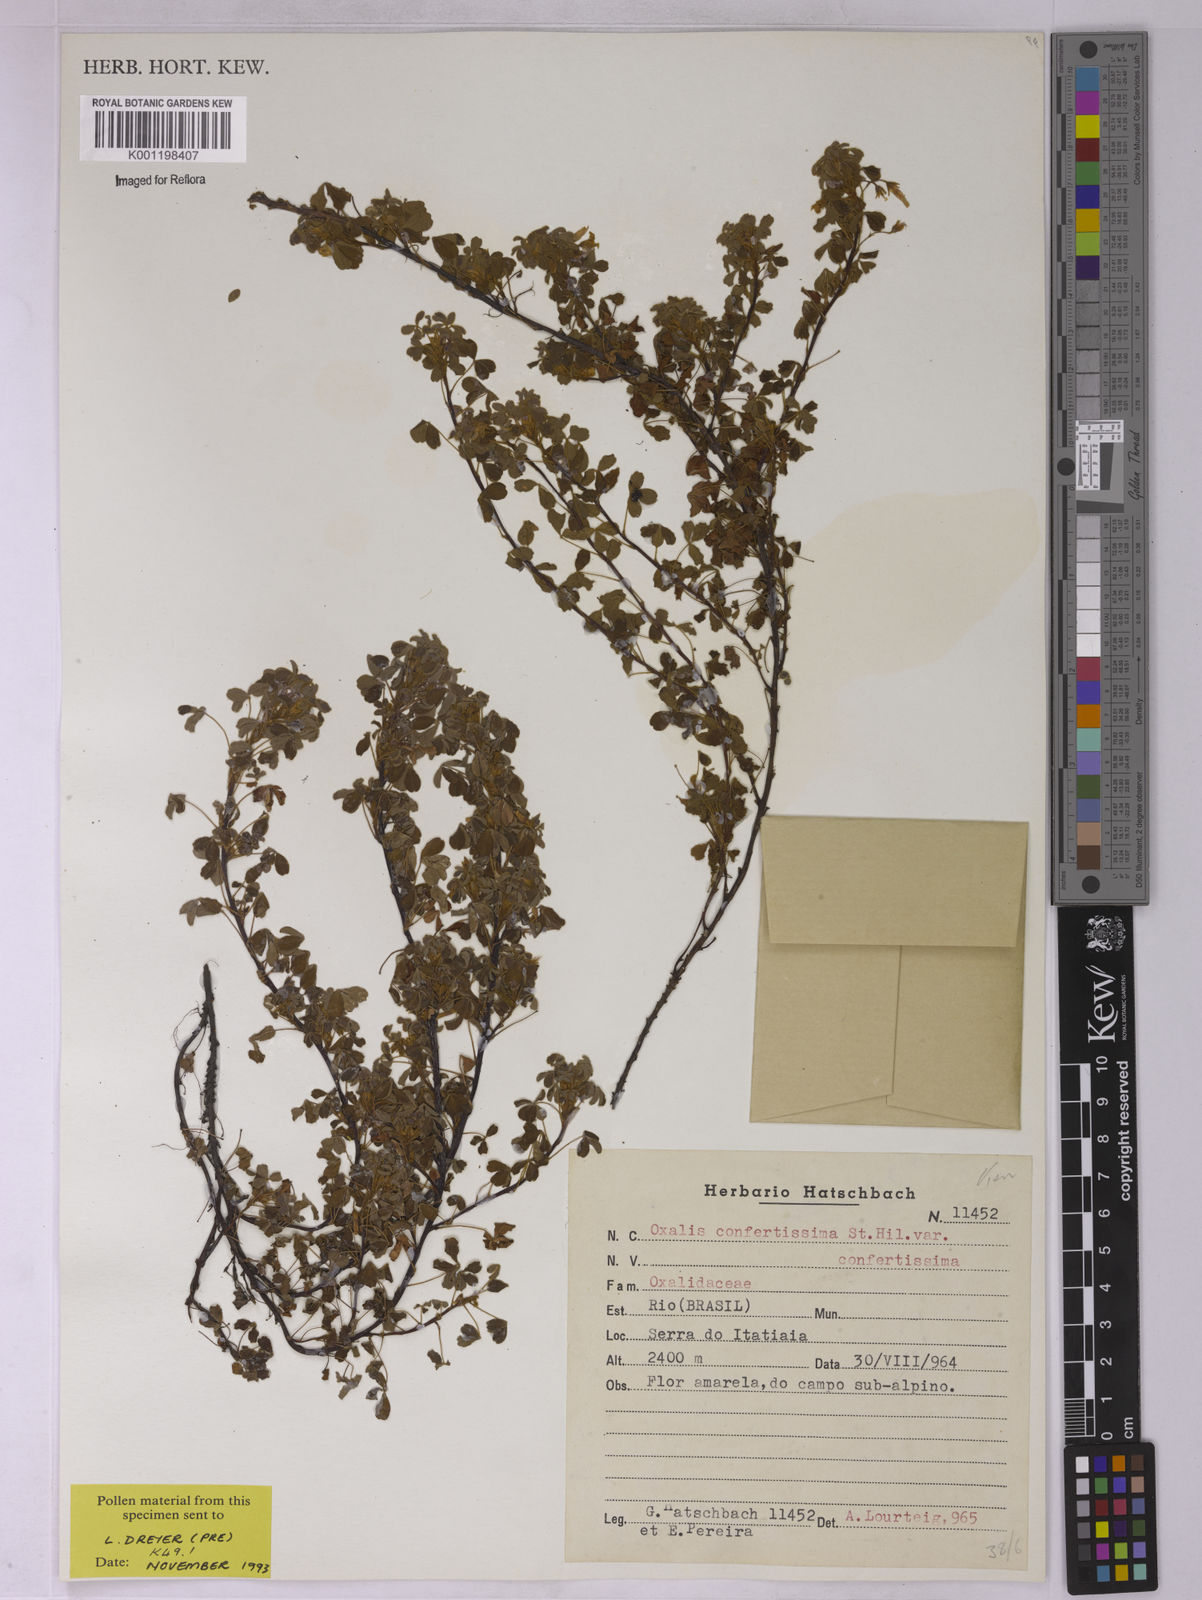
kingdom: Plantae
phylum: Tracheophyta
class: Magnoliopsida
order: Oxalidales
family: Oxalidaceae
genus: Oxalis
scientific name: Oxalis confertissima
